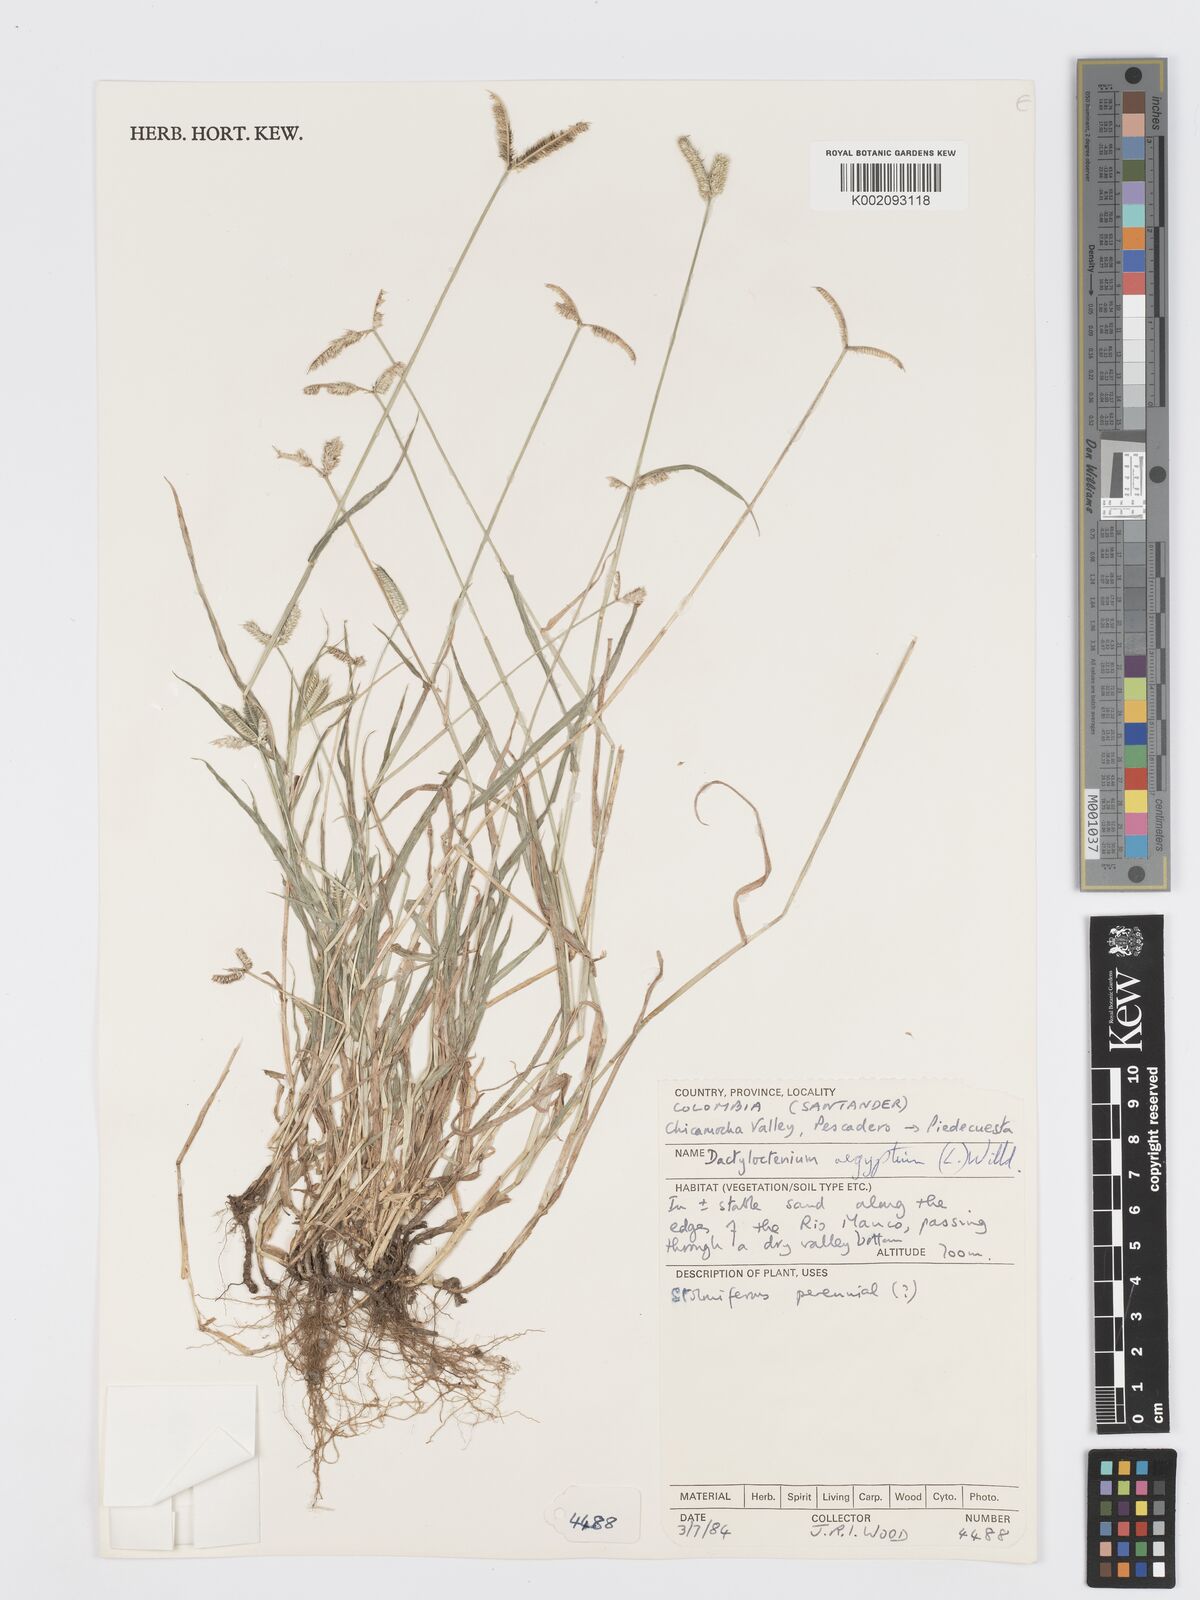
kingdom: Plantae
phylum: Tracheophyta
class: Liliopsida
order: Poales
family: Poaceae
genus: Dactyloctenium
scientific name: Dactyloctenium aegyptium
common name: Egyptian grass
